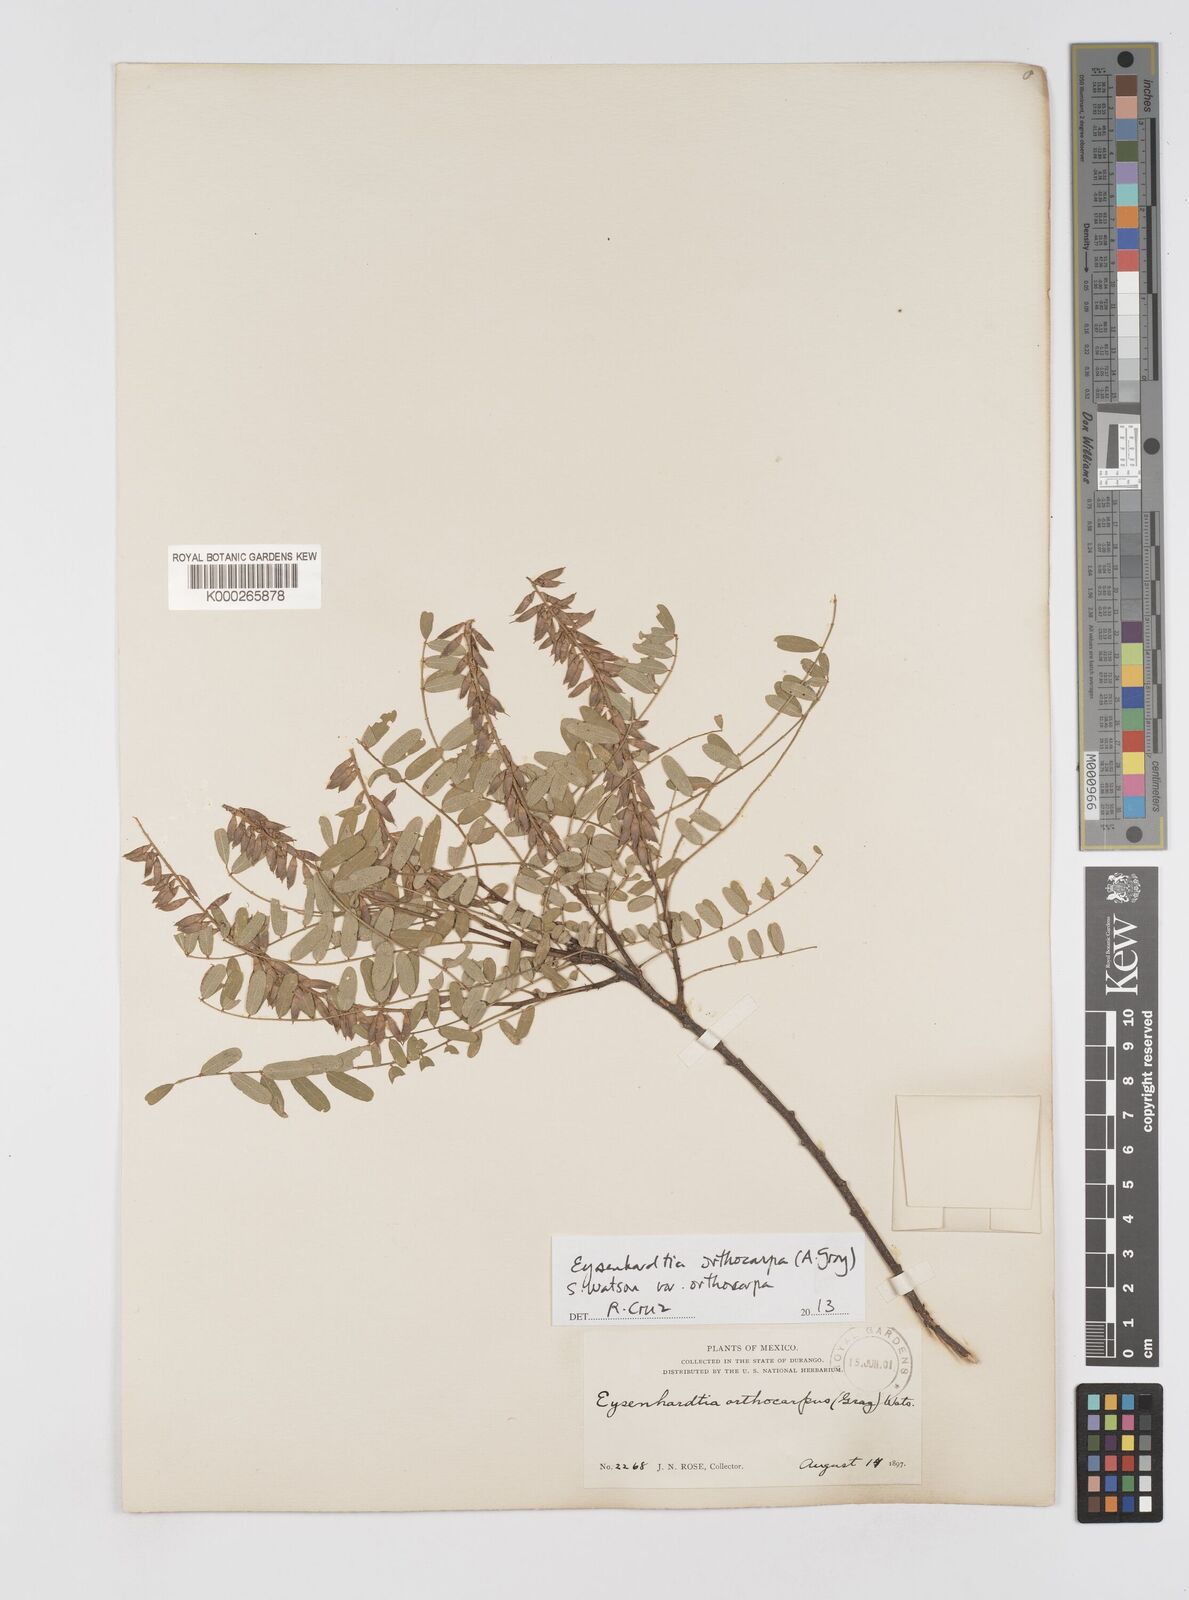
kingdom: Plantae
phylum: Tracheophyta
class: Magnoliopsida
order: Fabales
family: Fabaceae
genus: Eysenhardtia
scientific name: Eysenhardtia orthocarpa
